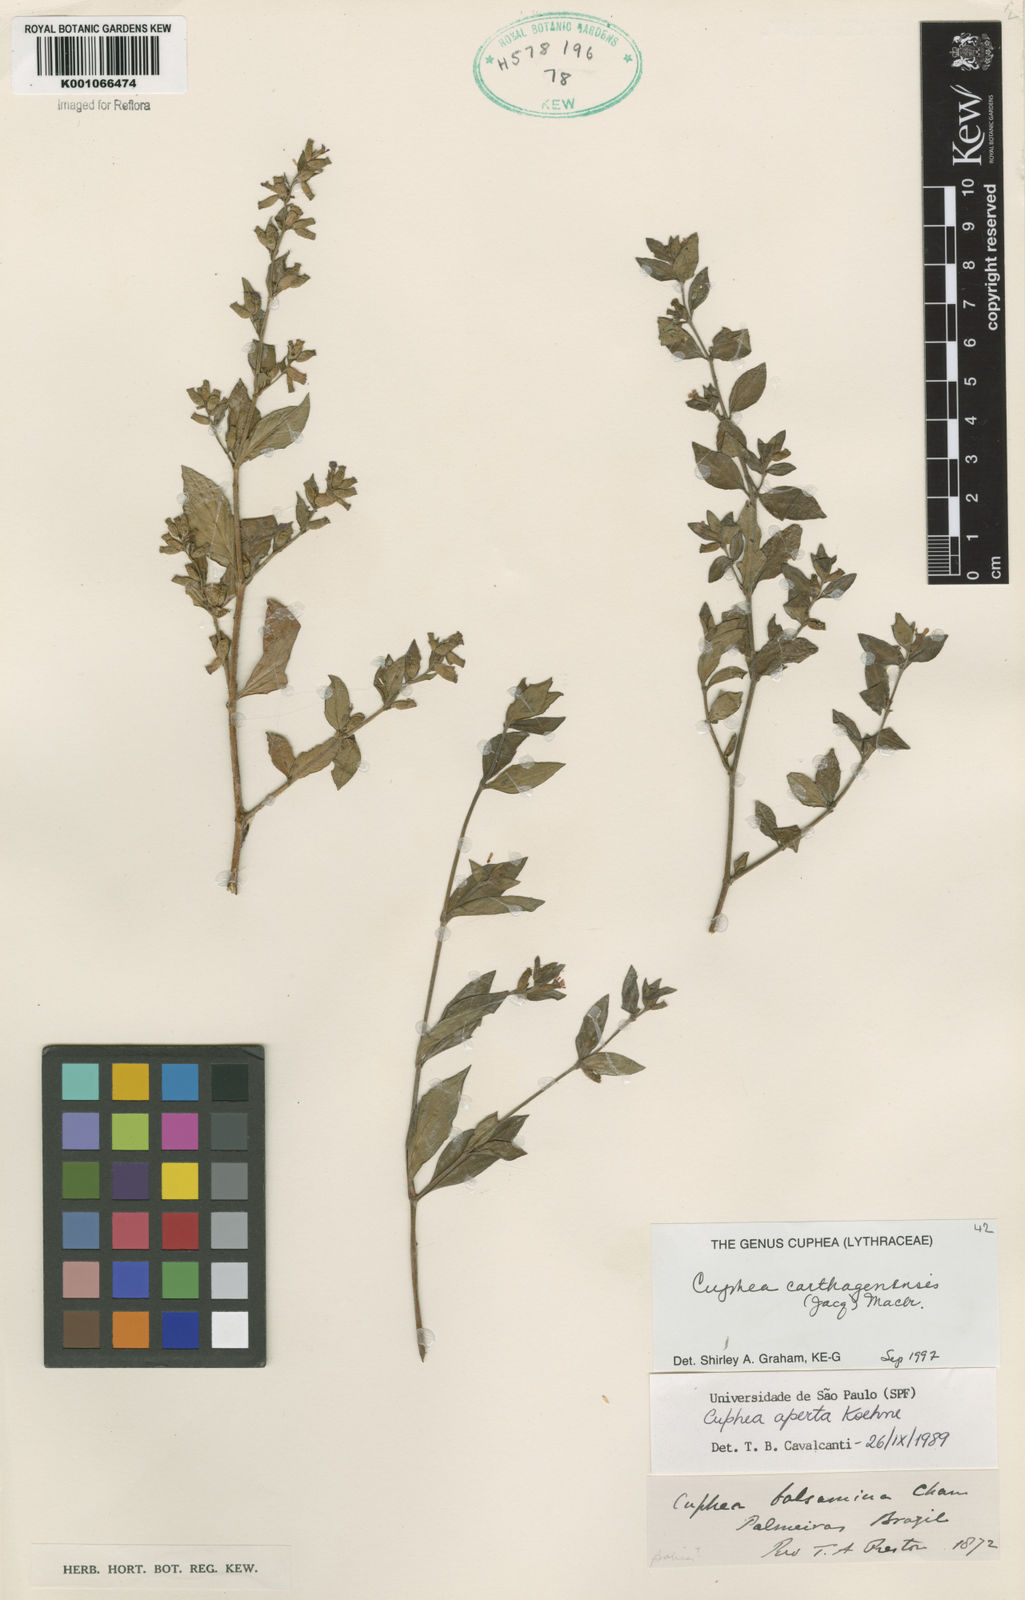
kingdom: Plantae
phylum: Tracheophyta
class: Magnoliopsida
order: Myrtales
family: Lythraceae
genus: Cuphea
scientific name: Cuphea carthagenensis
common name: Colombian waxweed
